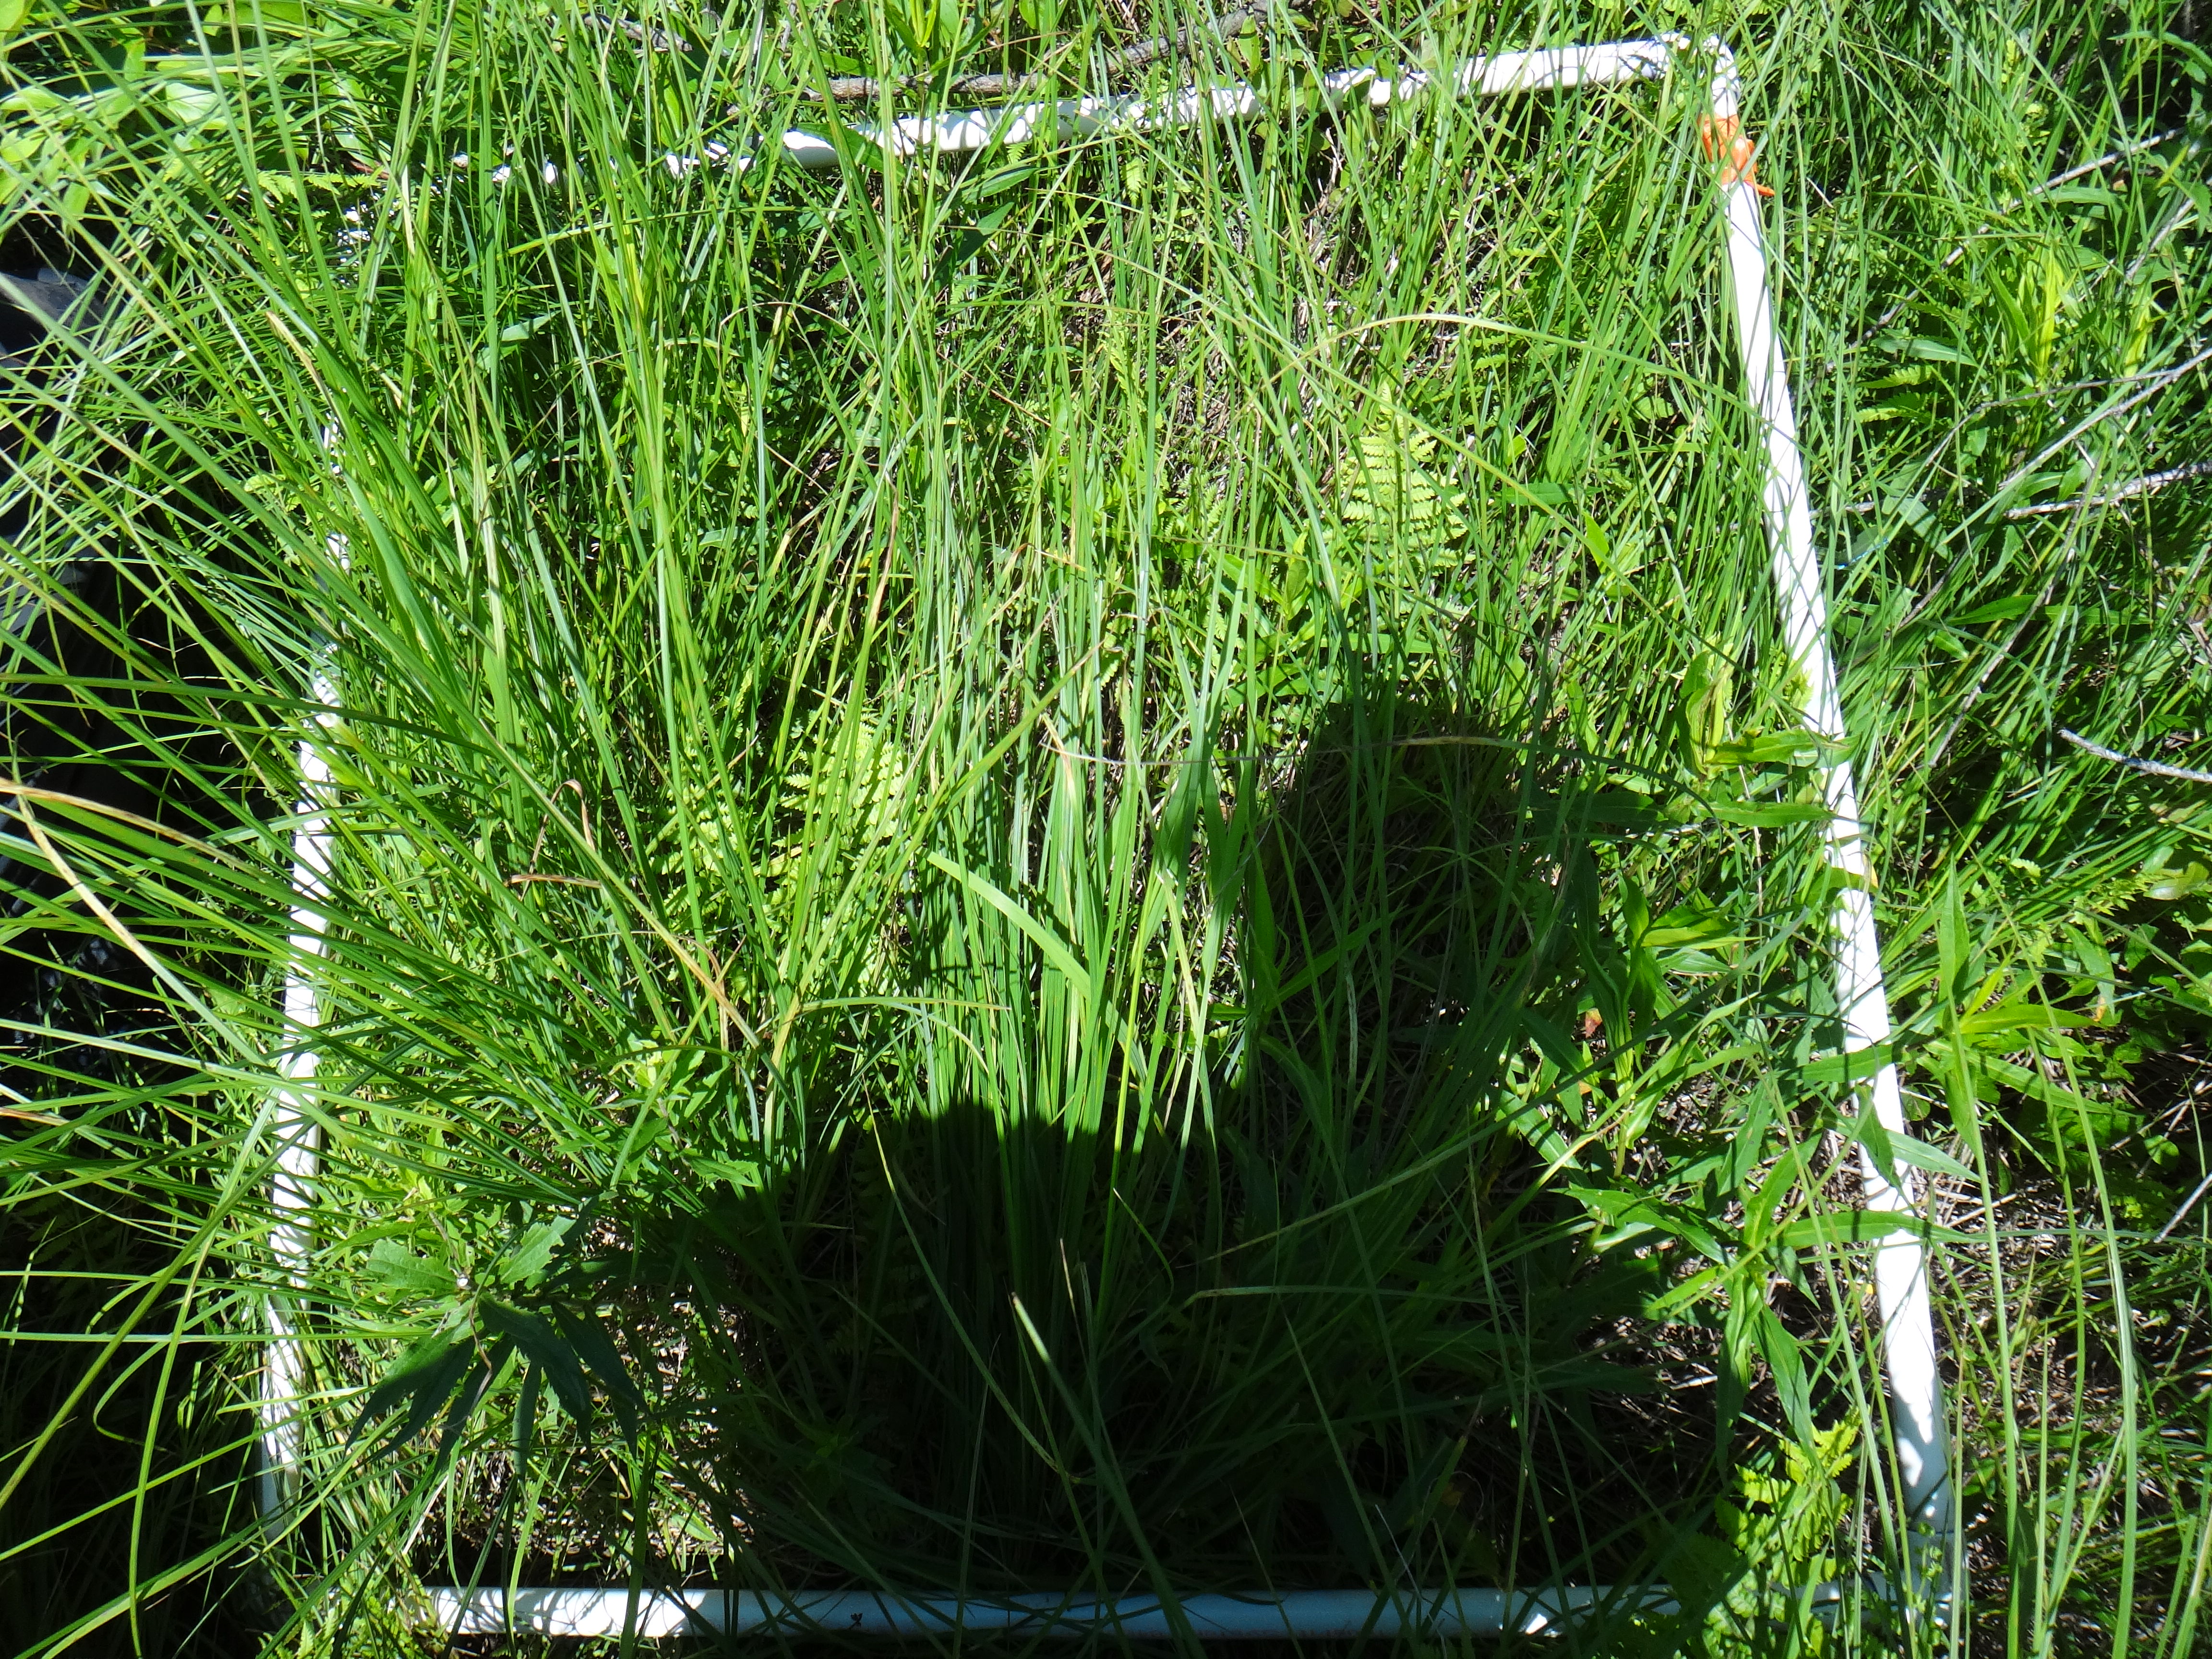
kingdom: Plantae
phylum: Tracheophyta
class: Magnoliopsida
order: Rosales
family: Rosaceae
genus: Spiraea
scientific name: Spiraea alba
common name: Pale bridewort
